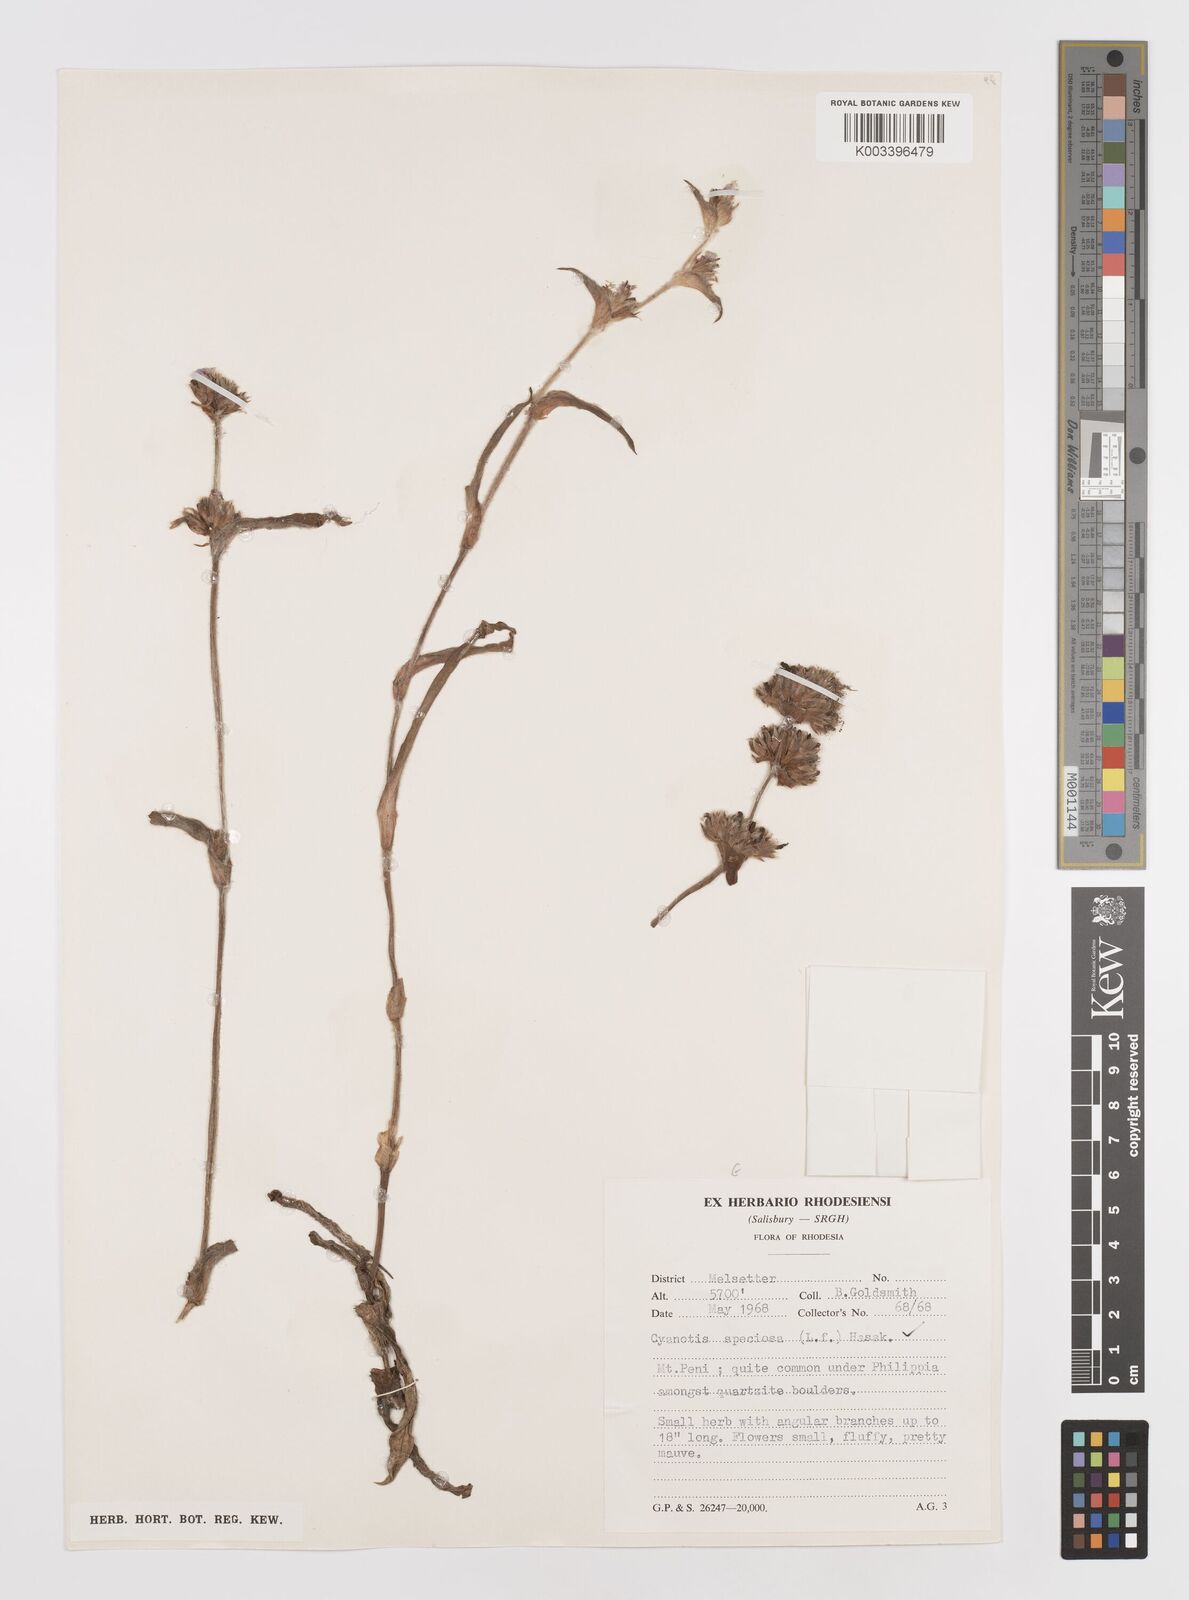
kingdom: Plantae
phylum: Tracheophyta
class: Liliopsida
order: Commelinales
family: Commelinaceae
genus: Cyanotis
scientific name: Cyanotis speciosa
